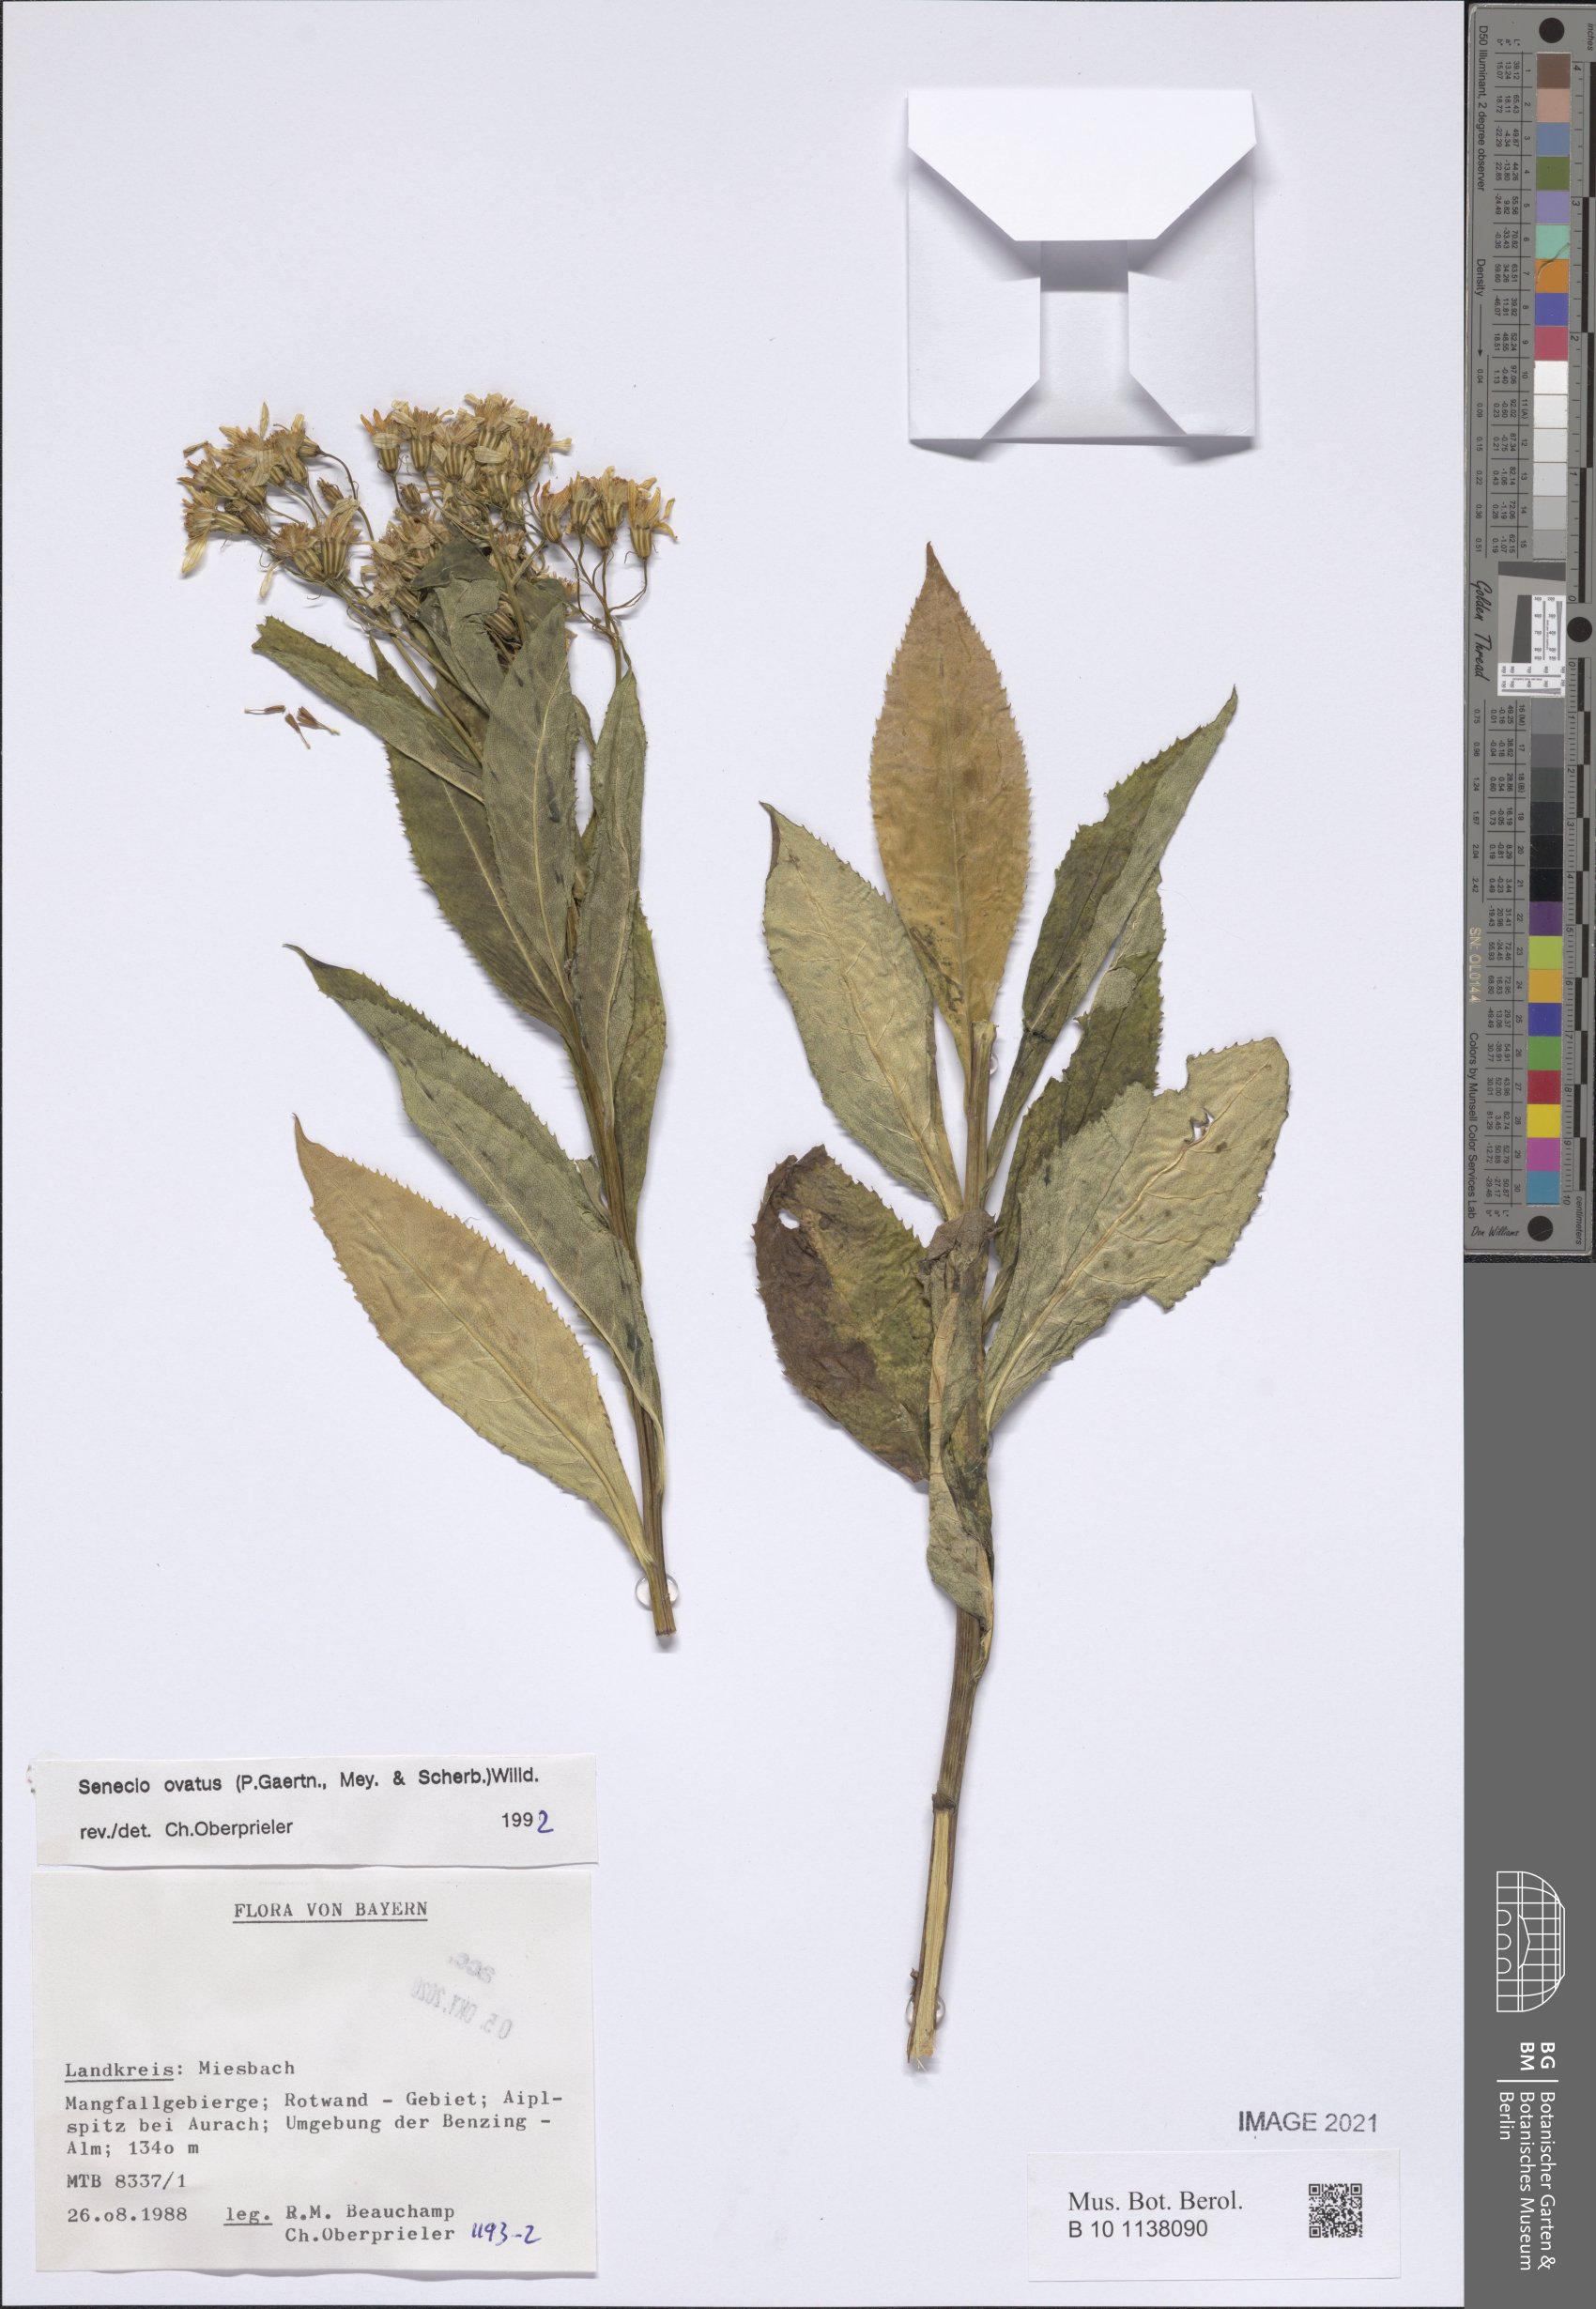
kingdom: Plantae
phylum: Tracheophyta
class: Magnoliopsida
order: Asterales
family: Asteraceae
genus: Senecio
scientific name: Senecio ovatus
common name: Wood ragwort
